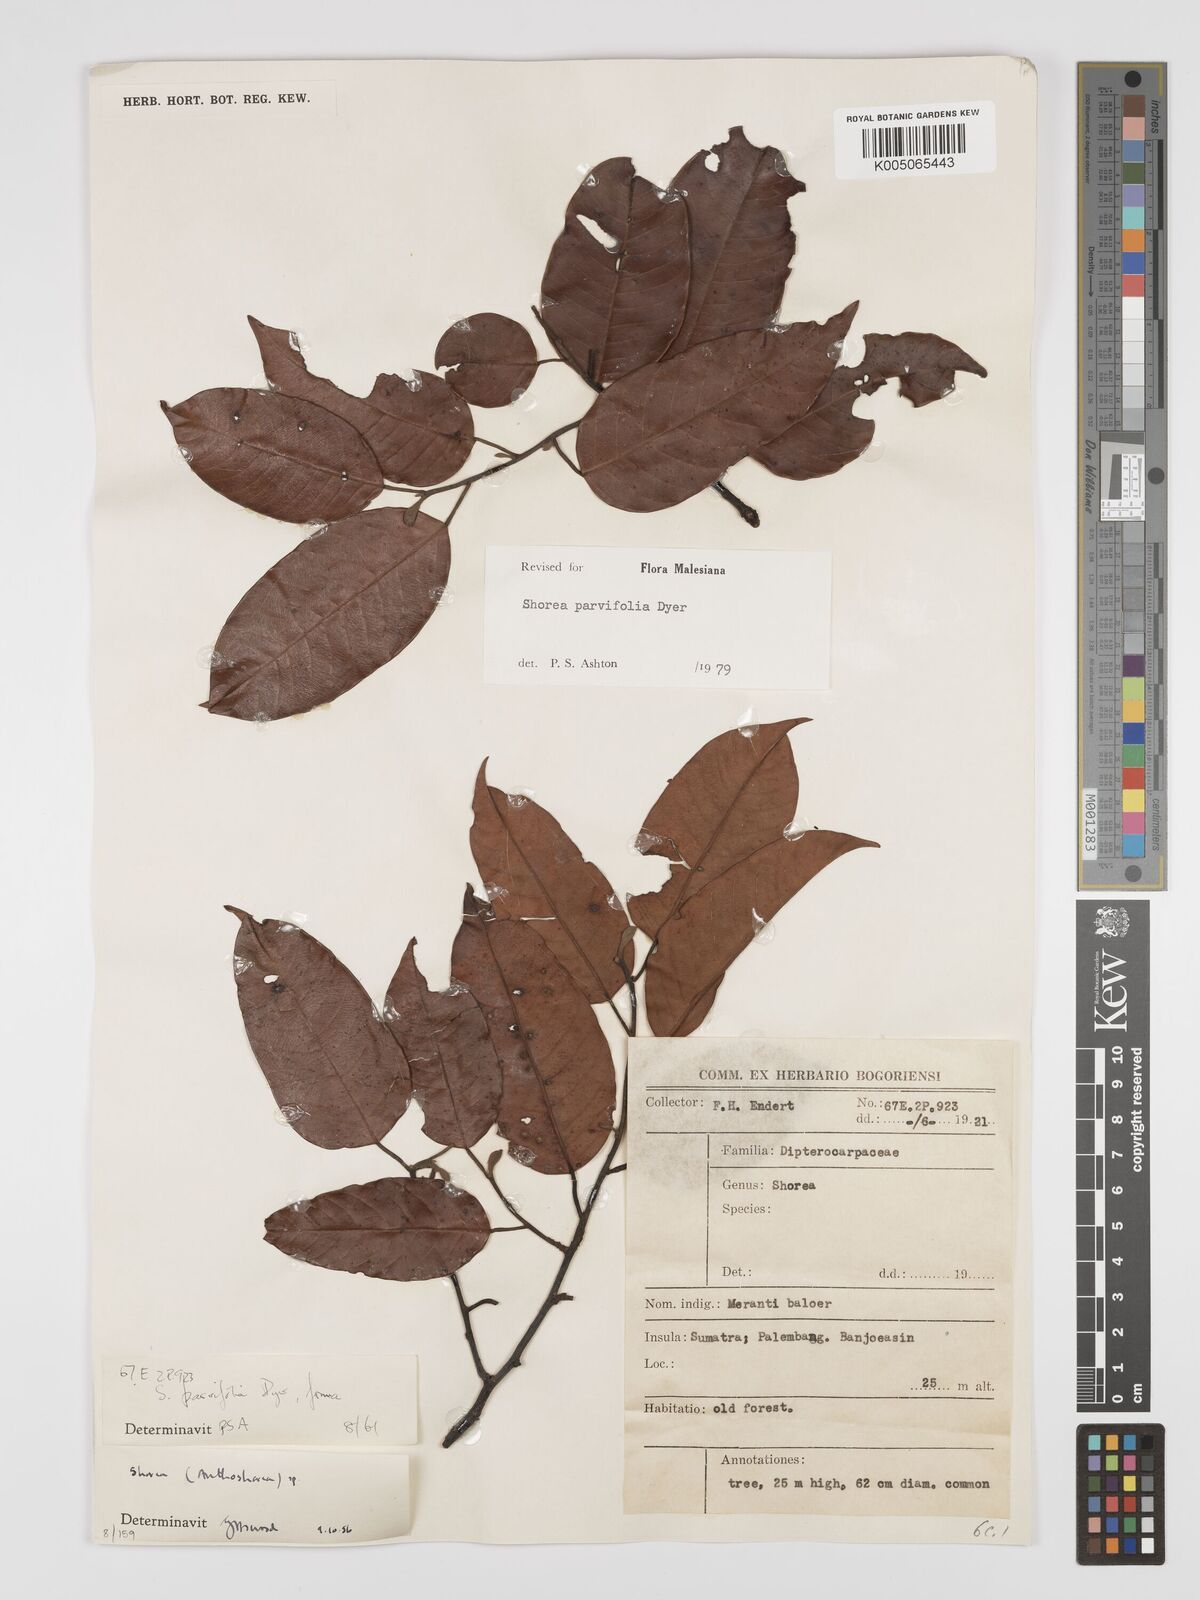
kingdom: Plantae
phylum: Tracheophyta
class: Magnoliopsida
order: Malvales
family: Dipterocarpaceae
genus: Shorea
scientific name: Shorea parvifolia
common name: Light red meranti
